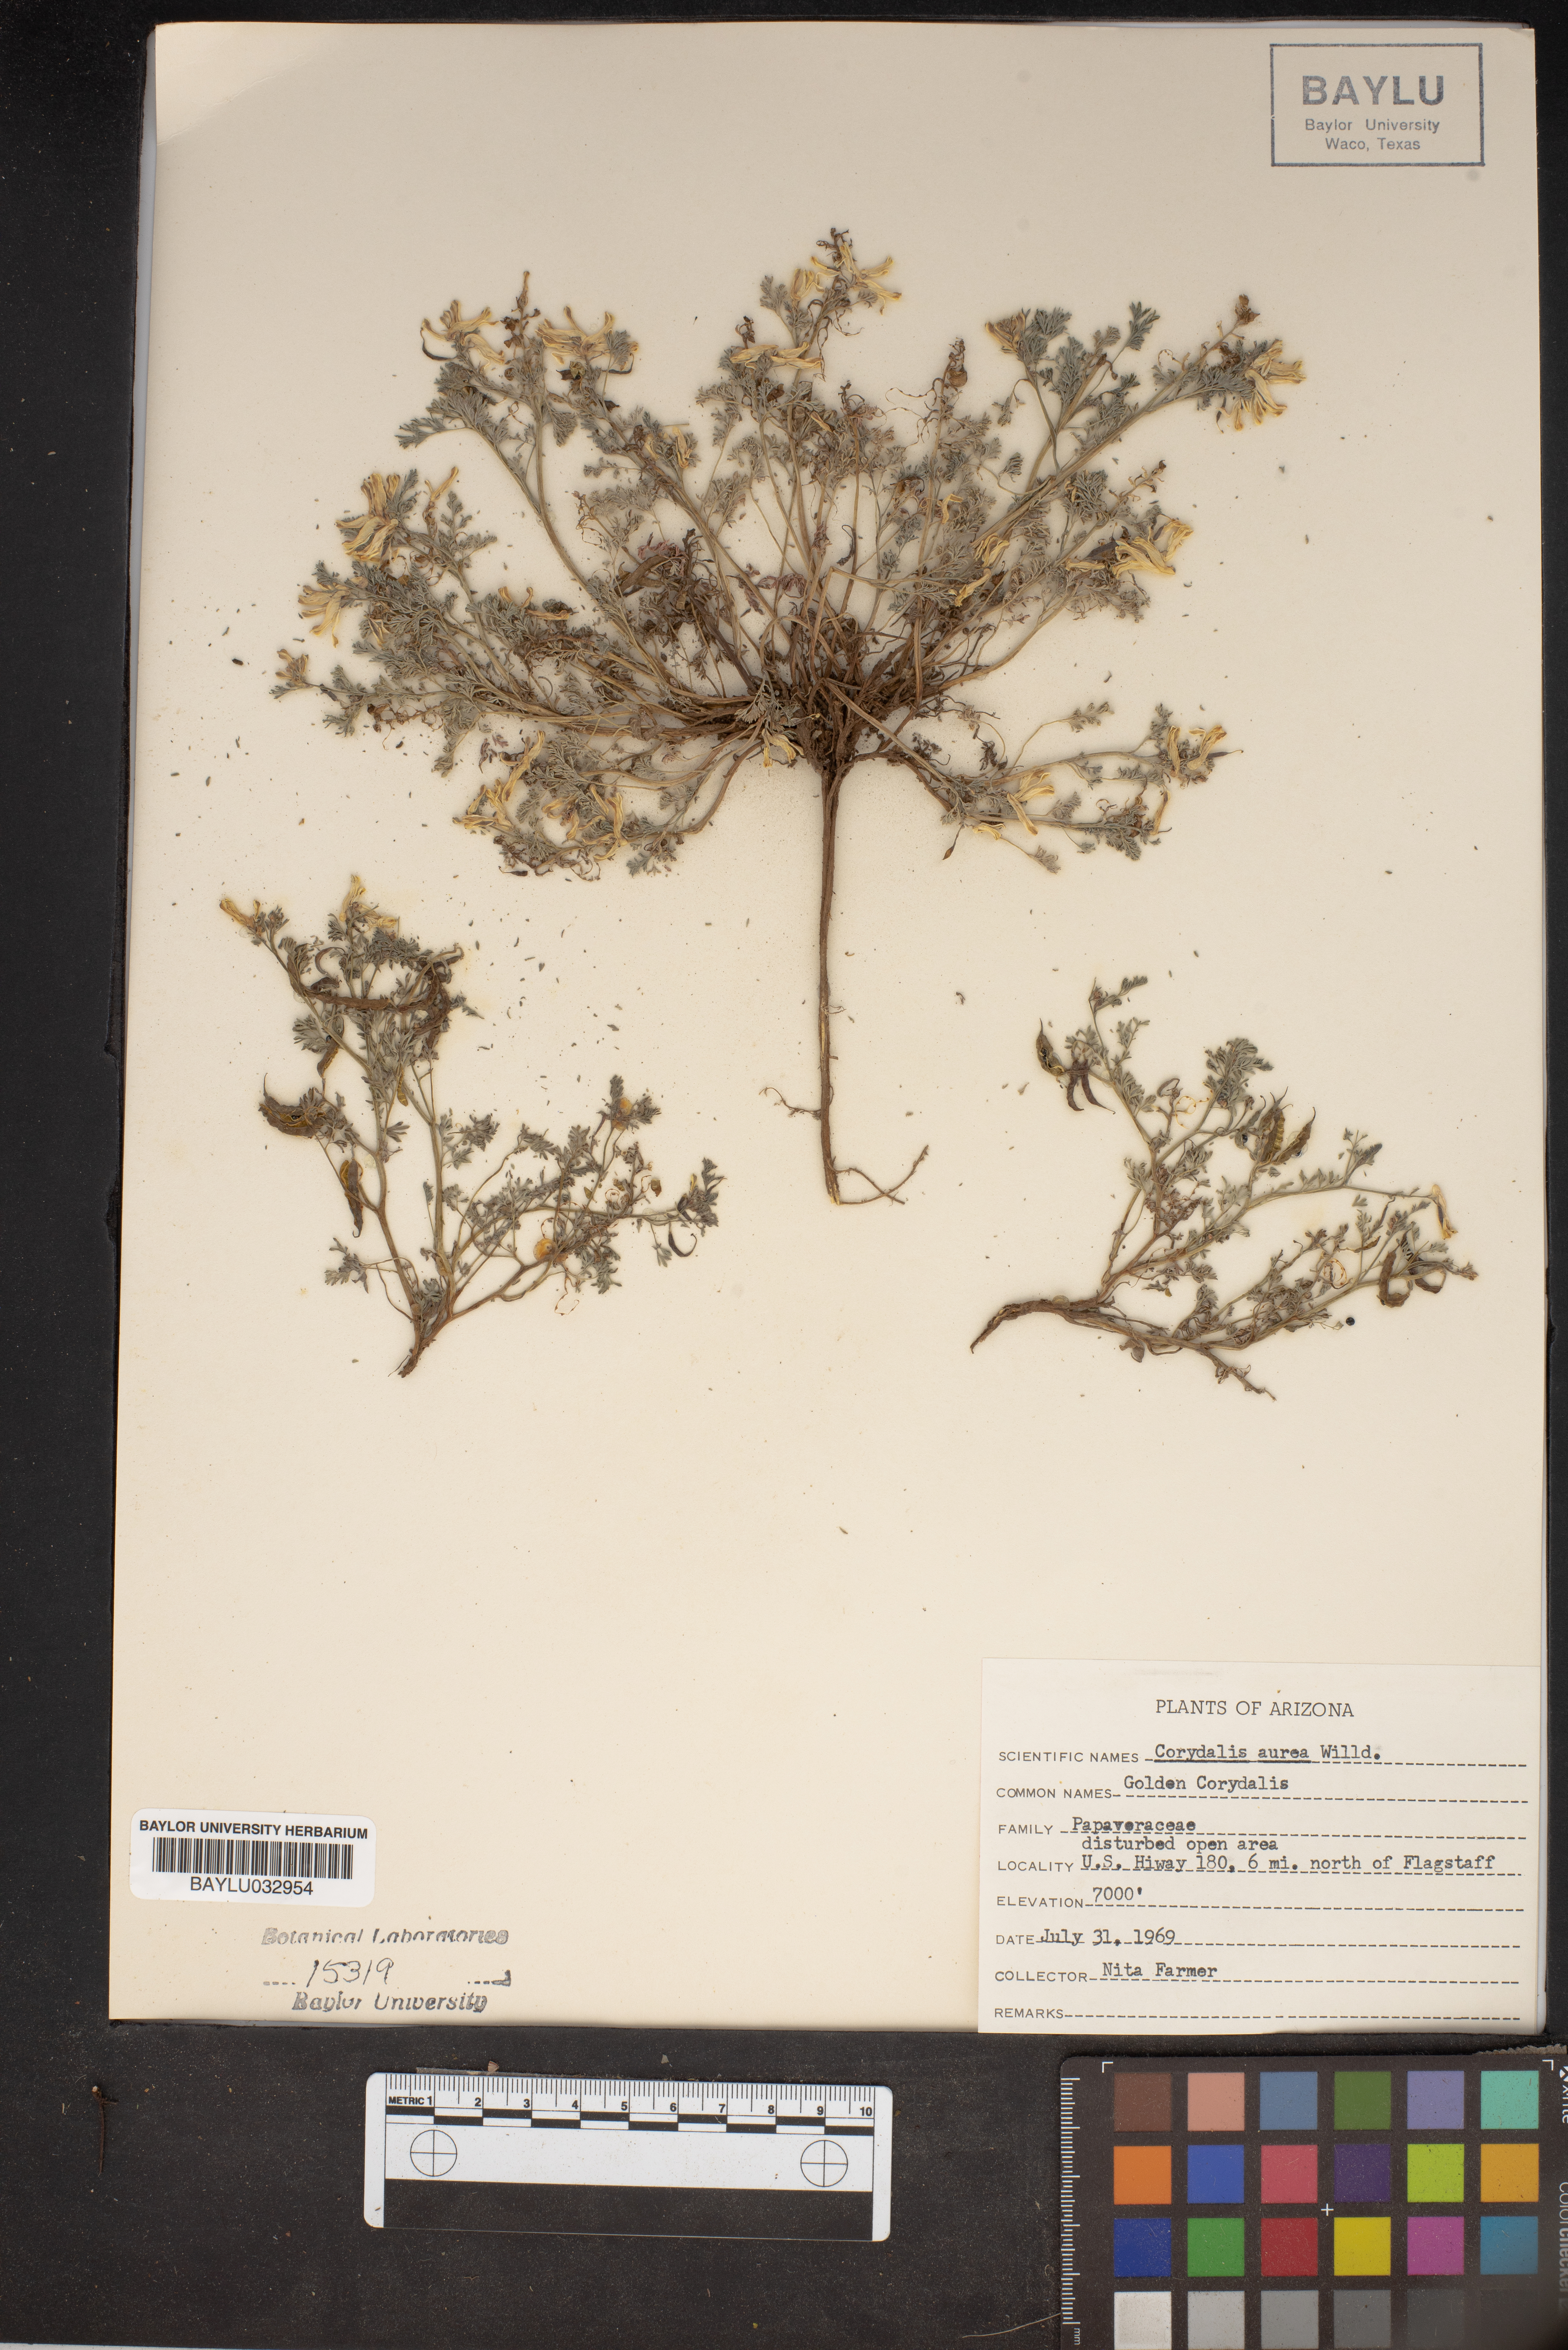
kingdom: Plantae
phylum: Tracheophyta
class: Magnoliopsida
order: Ranunculales
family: Papaveraceae
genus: Corydalis
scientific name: Corydalis aurea
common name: Golden corydalis
